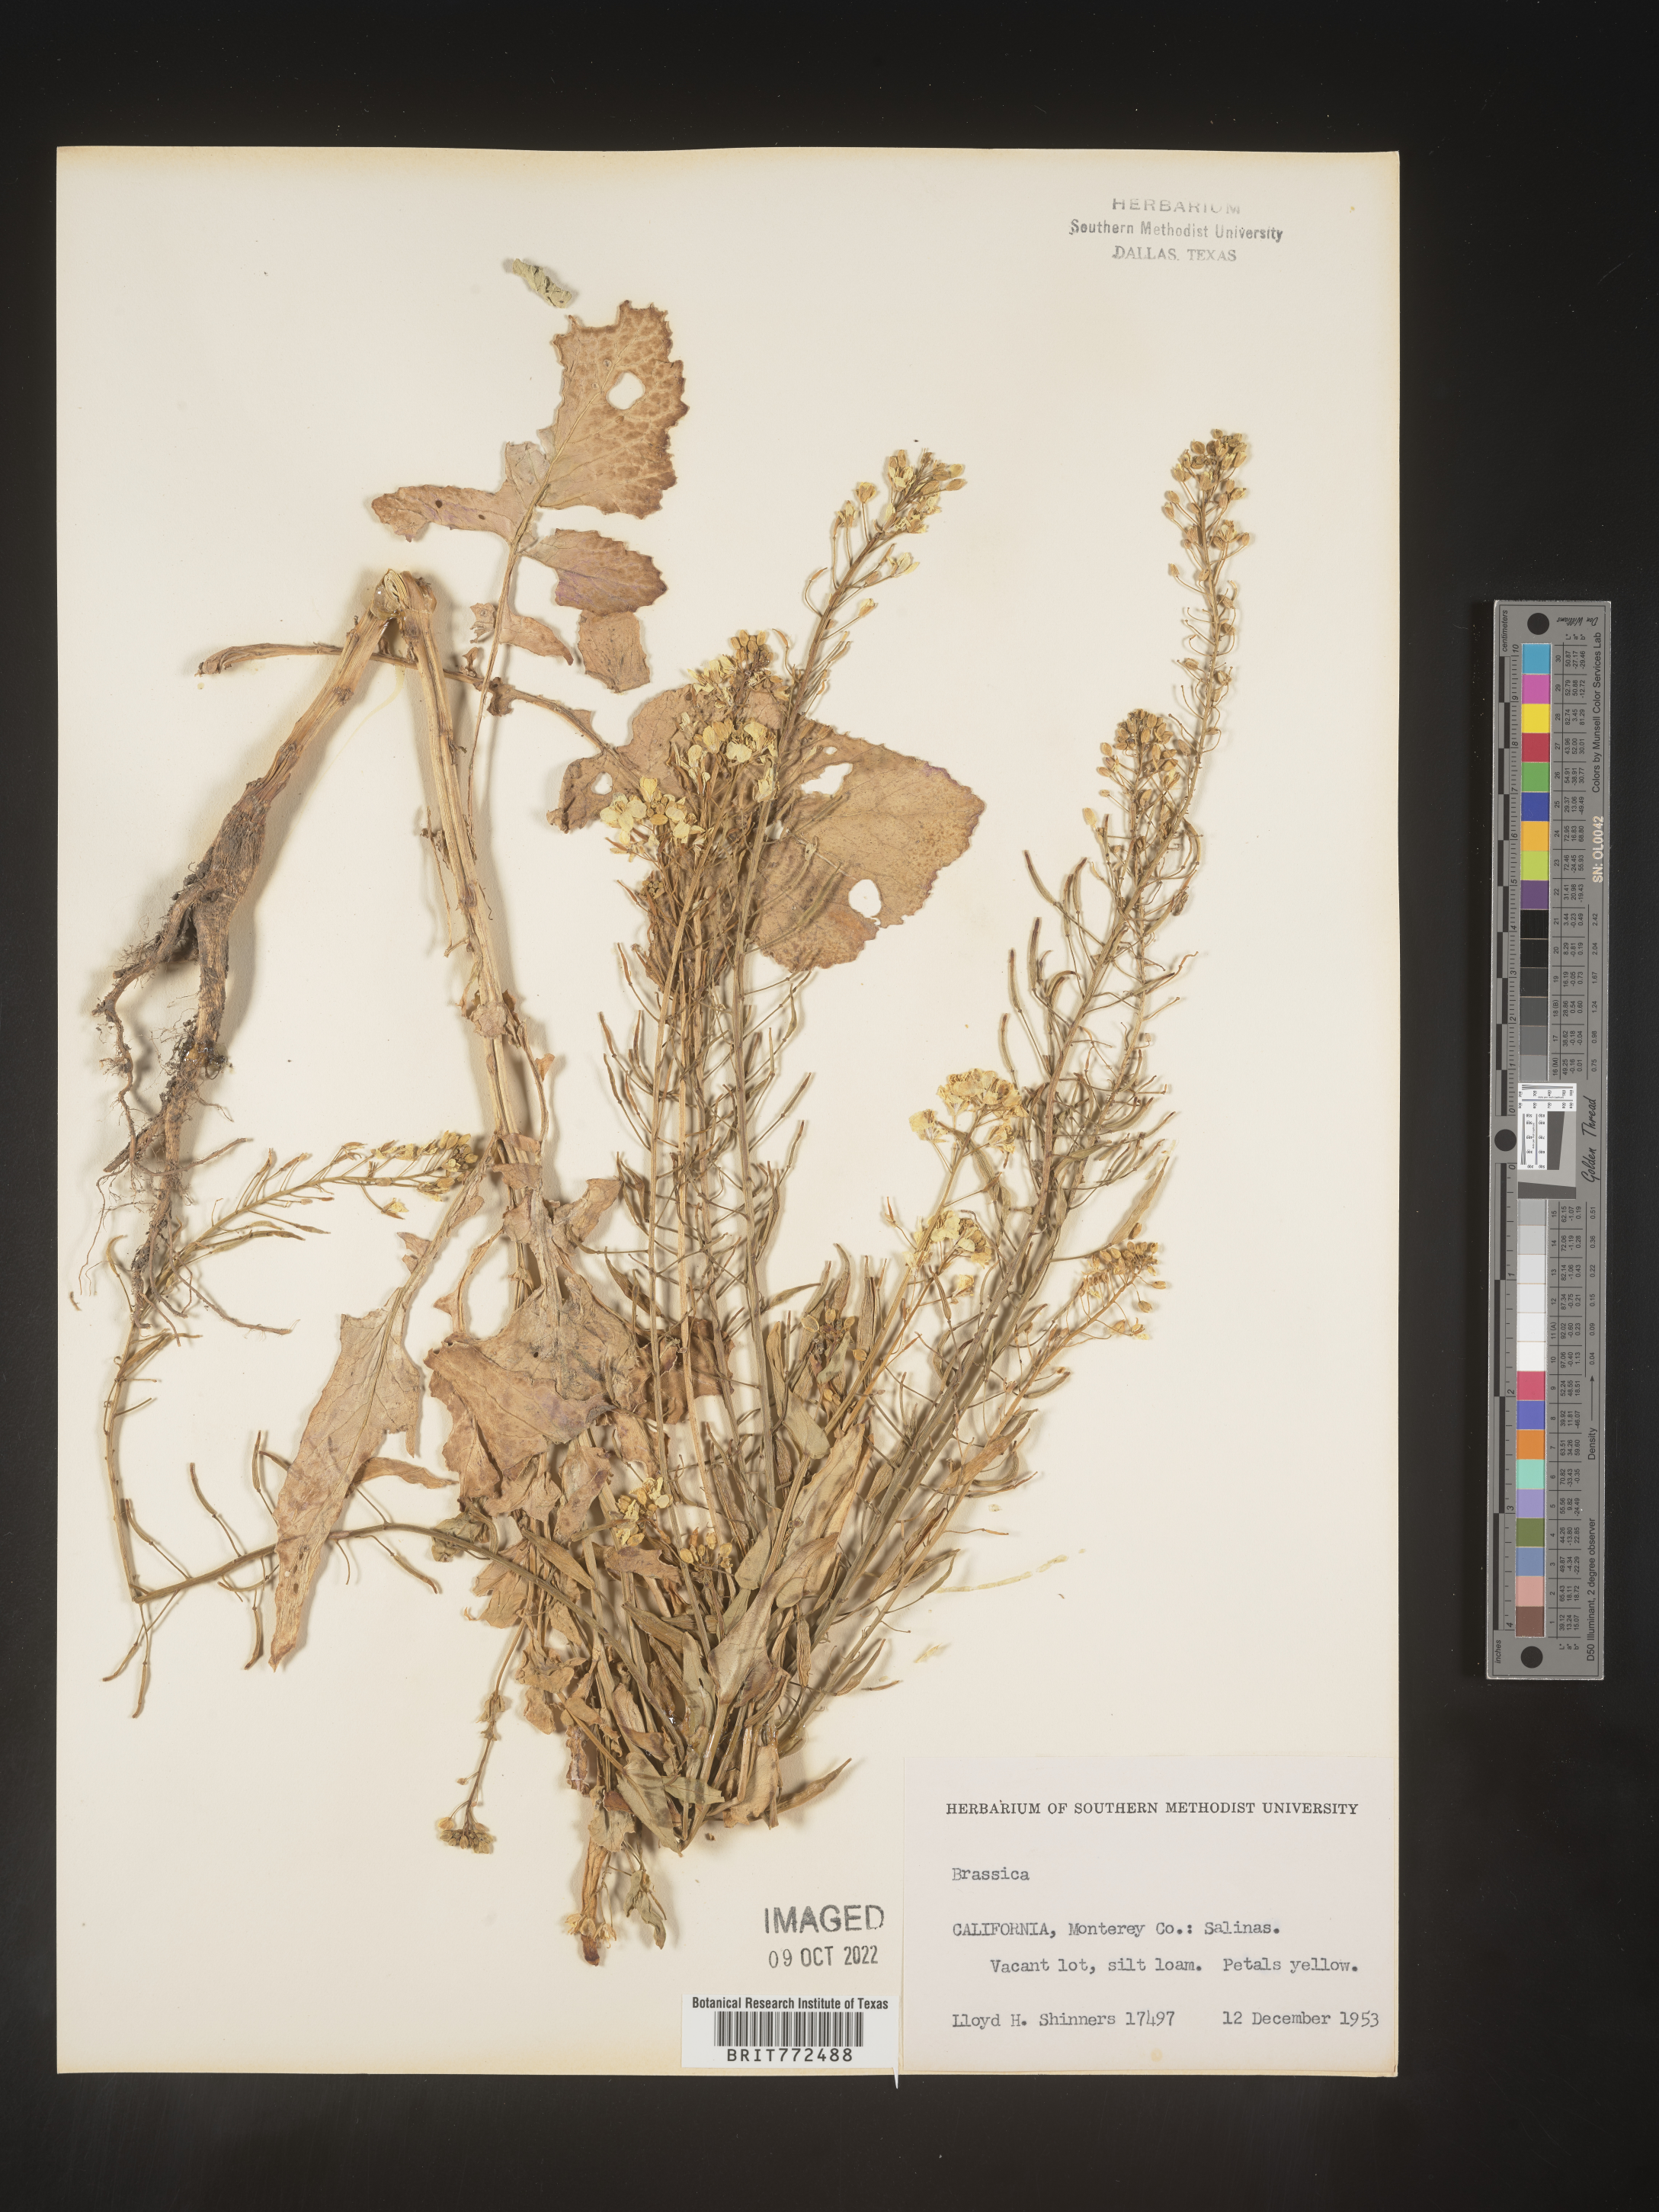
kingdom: Plantae
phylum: Tracheophyta
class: Magnoliopsida
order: Brassicales
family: Brassicaceae
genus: Brassica
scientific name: Brassica
